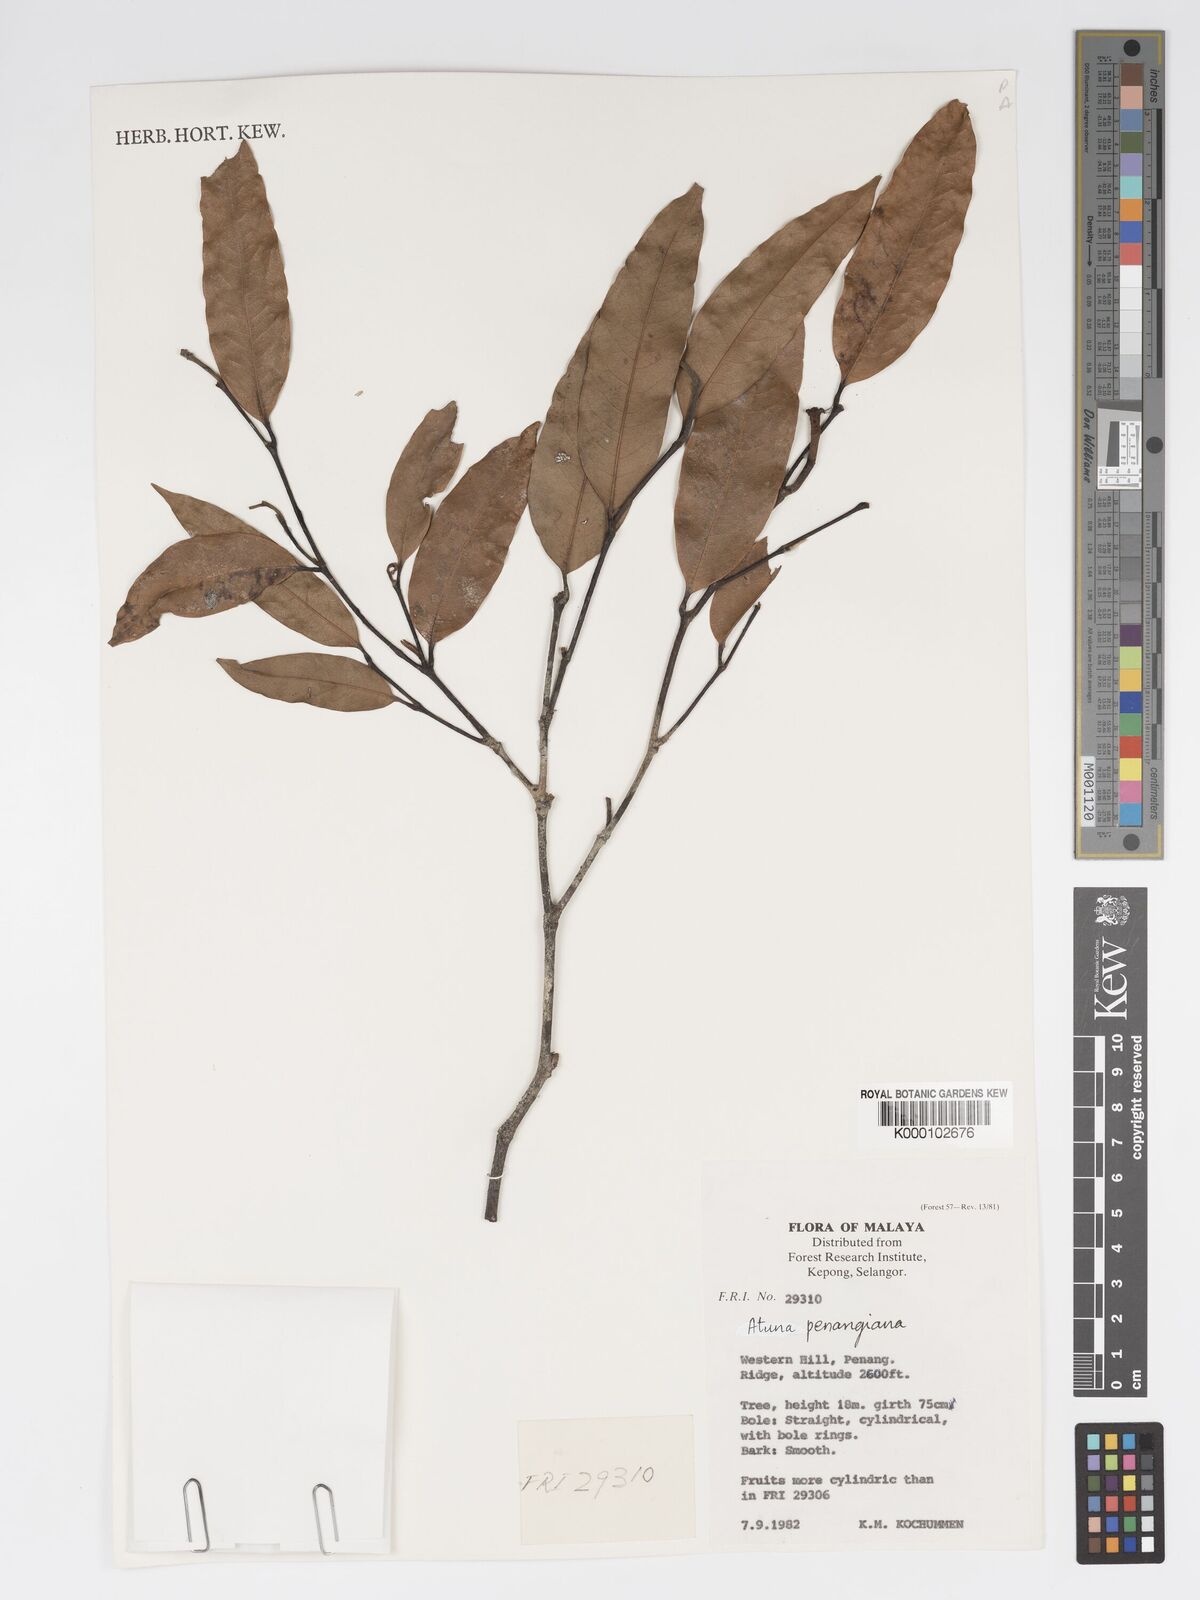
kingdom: Plantae
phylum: Tracheophyta
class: Magnoliopsida
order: Malpighiales
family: Chrysobalanaceae
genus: Atuna
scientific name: Atuna penangiana
